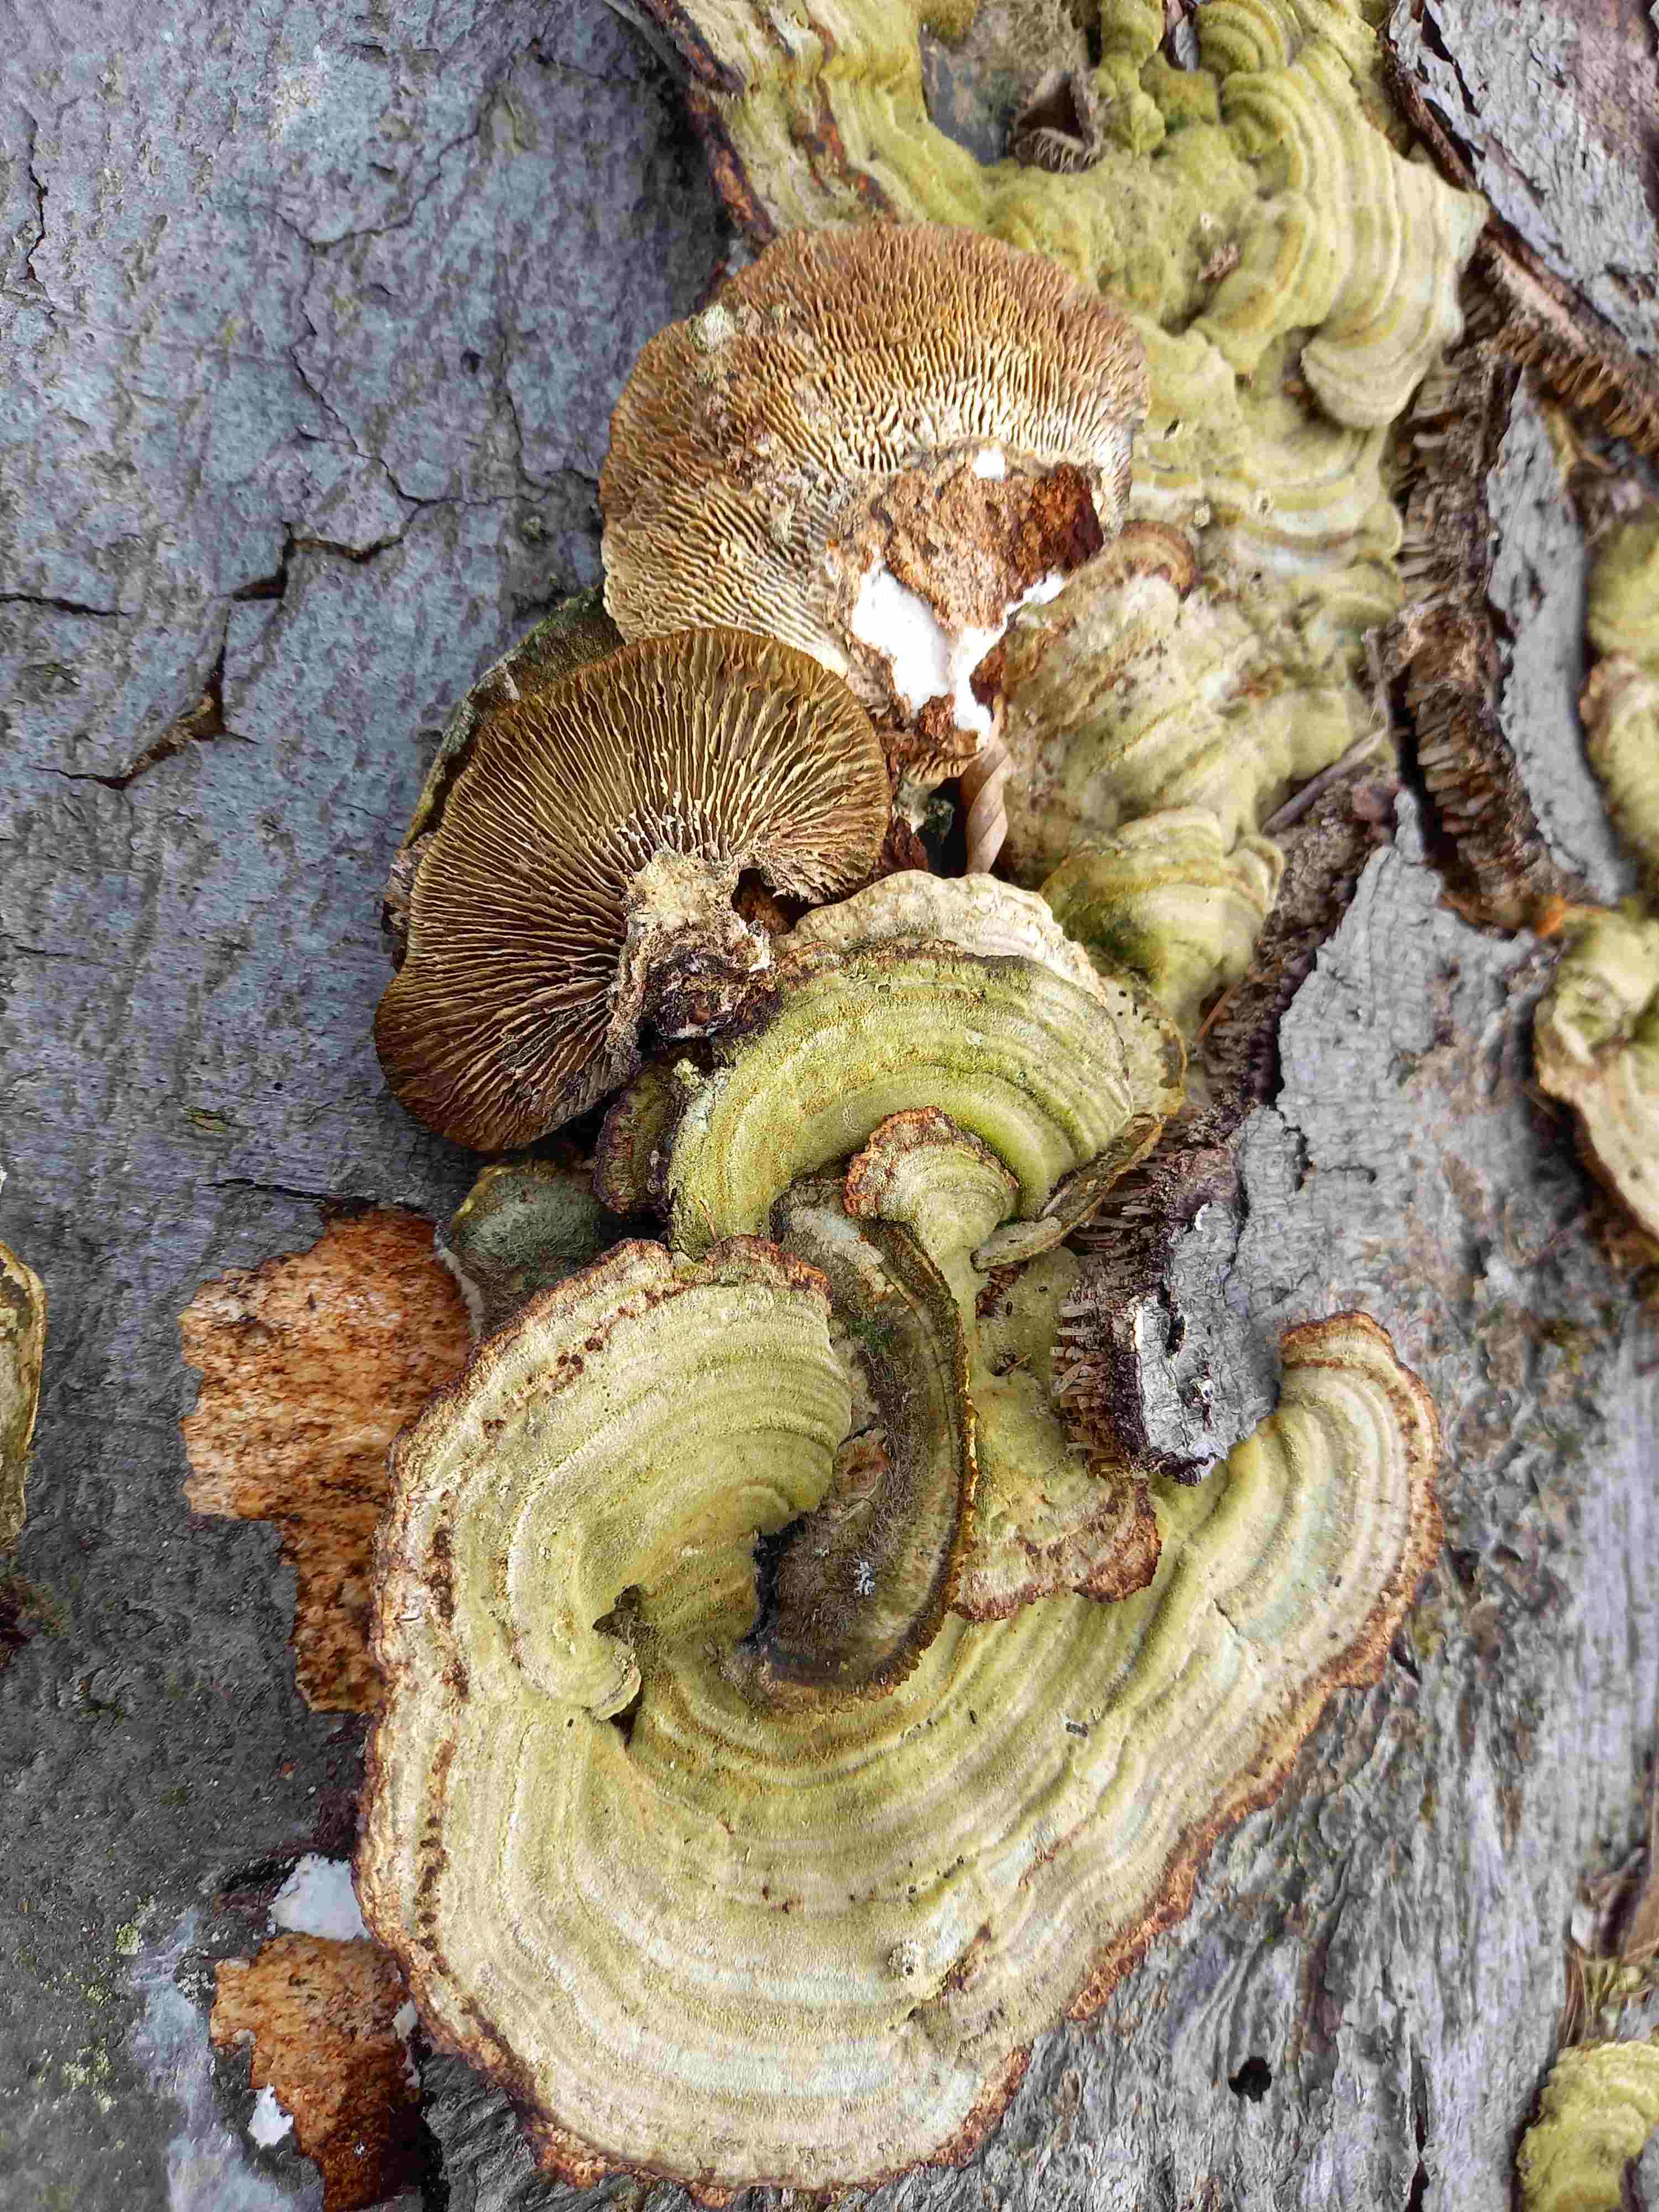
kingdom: Fungi
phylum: Basidiomycota
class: Agaricomycetes
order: Polyporales
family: Polyporaceae
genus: Lenzites
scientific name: Lenzites betulinus
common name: birke-læderporesvamp
